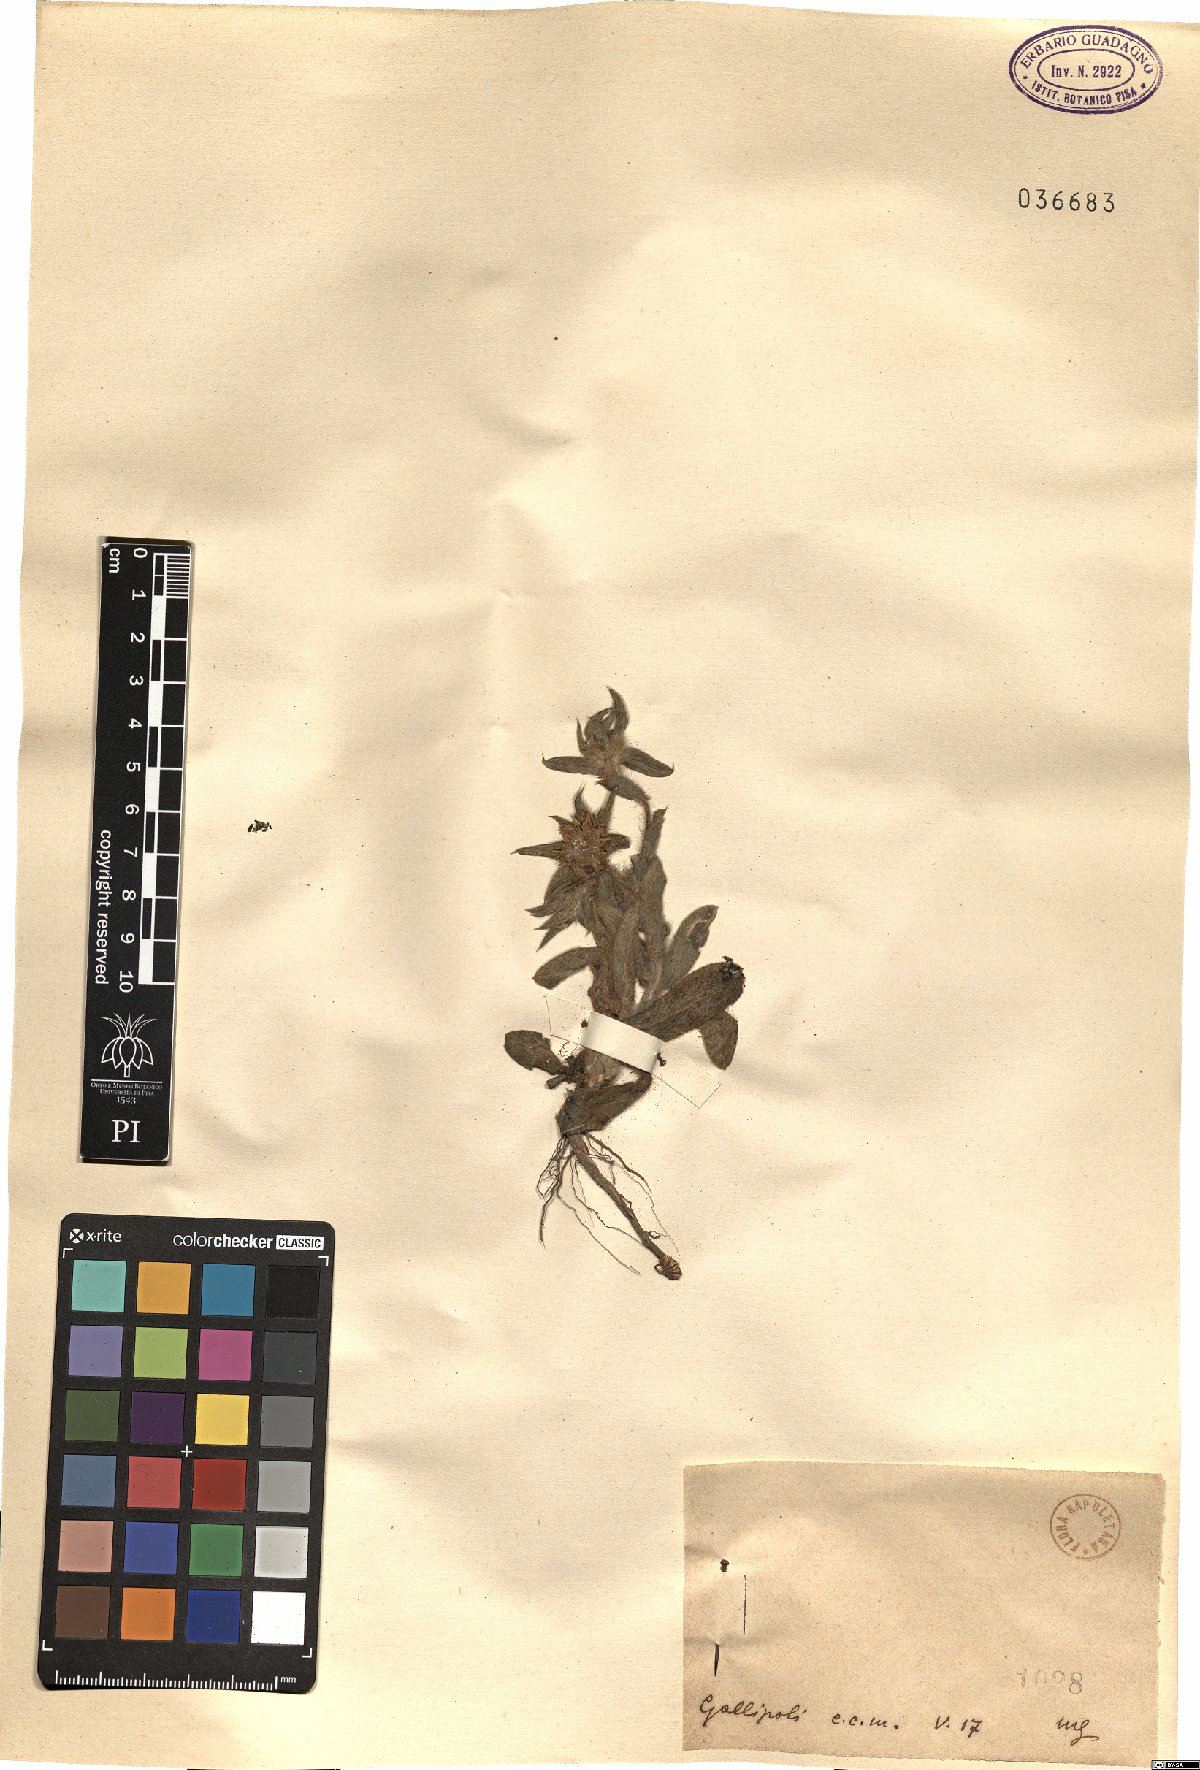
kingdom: Plantae
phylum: Tracheophyta
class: Magnoliopsida
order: Asterales
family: Asteraceae
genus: Asteriscus
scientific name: Asteriscus
